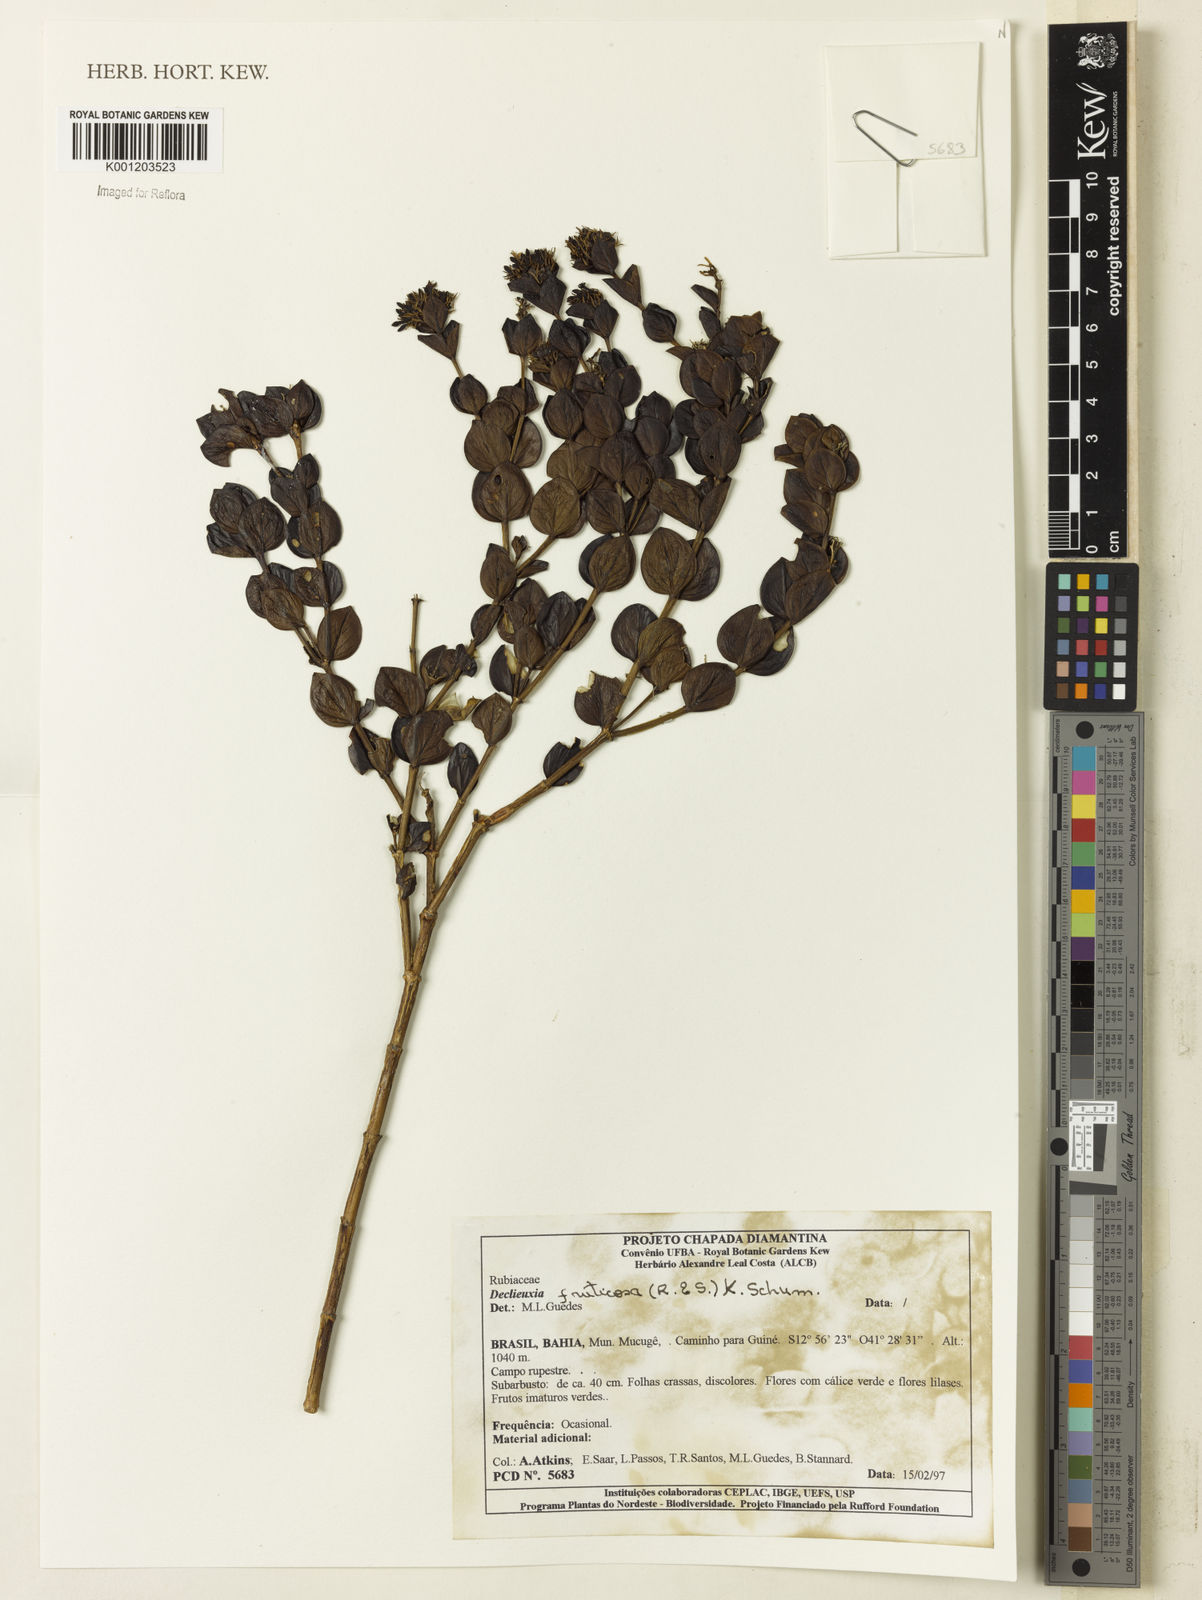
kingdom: Plantae
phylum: Tracheophyta
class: Magnoliopsida
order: Gentianales
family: Rubiaceae
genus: Declieuxia
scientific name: Declieuxia fruticosa
